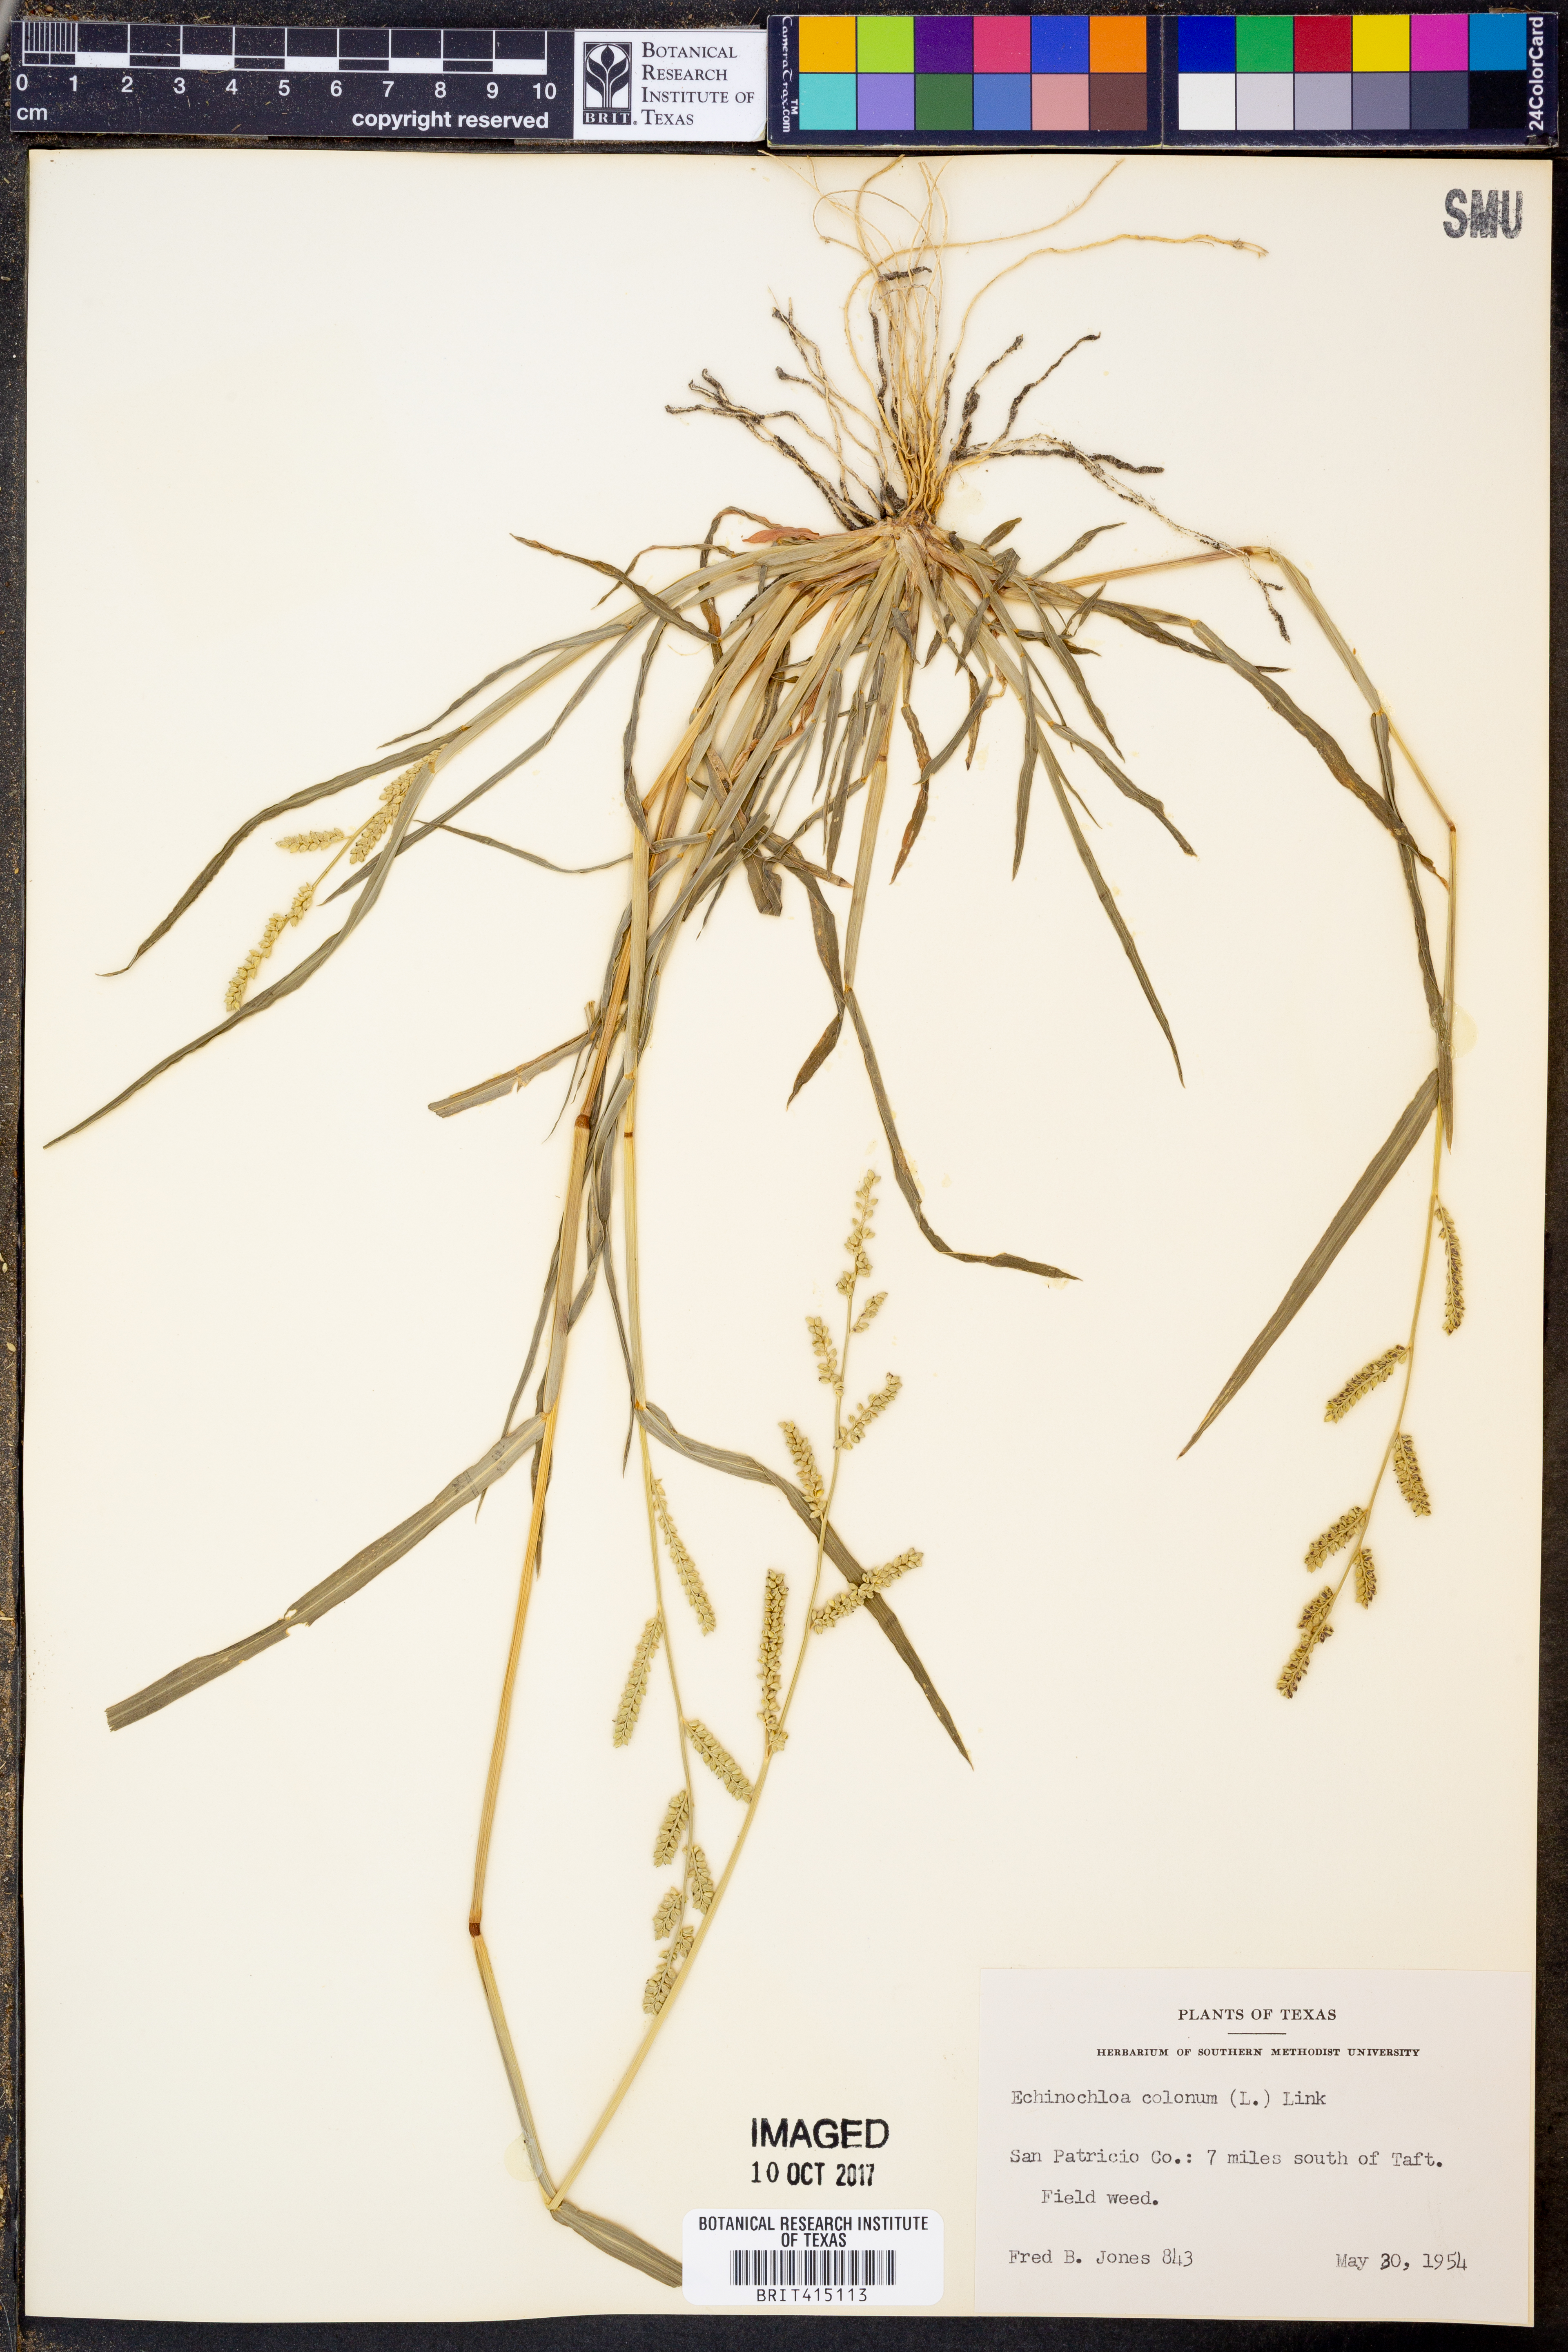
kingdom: Plantae
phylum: Tracheophyta
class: Liliopsida
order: Poales
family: Poaceae
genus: Echinochloa
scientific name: Echinochloa colonum
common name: Jungle rice
